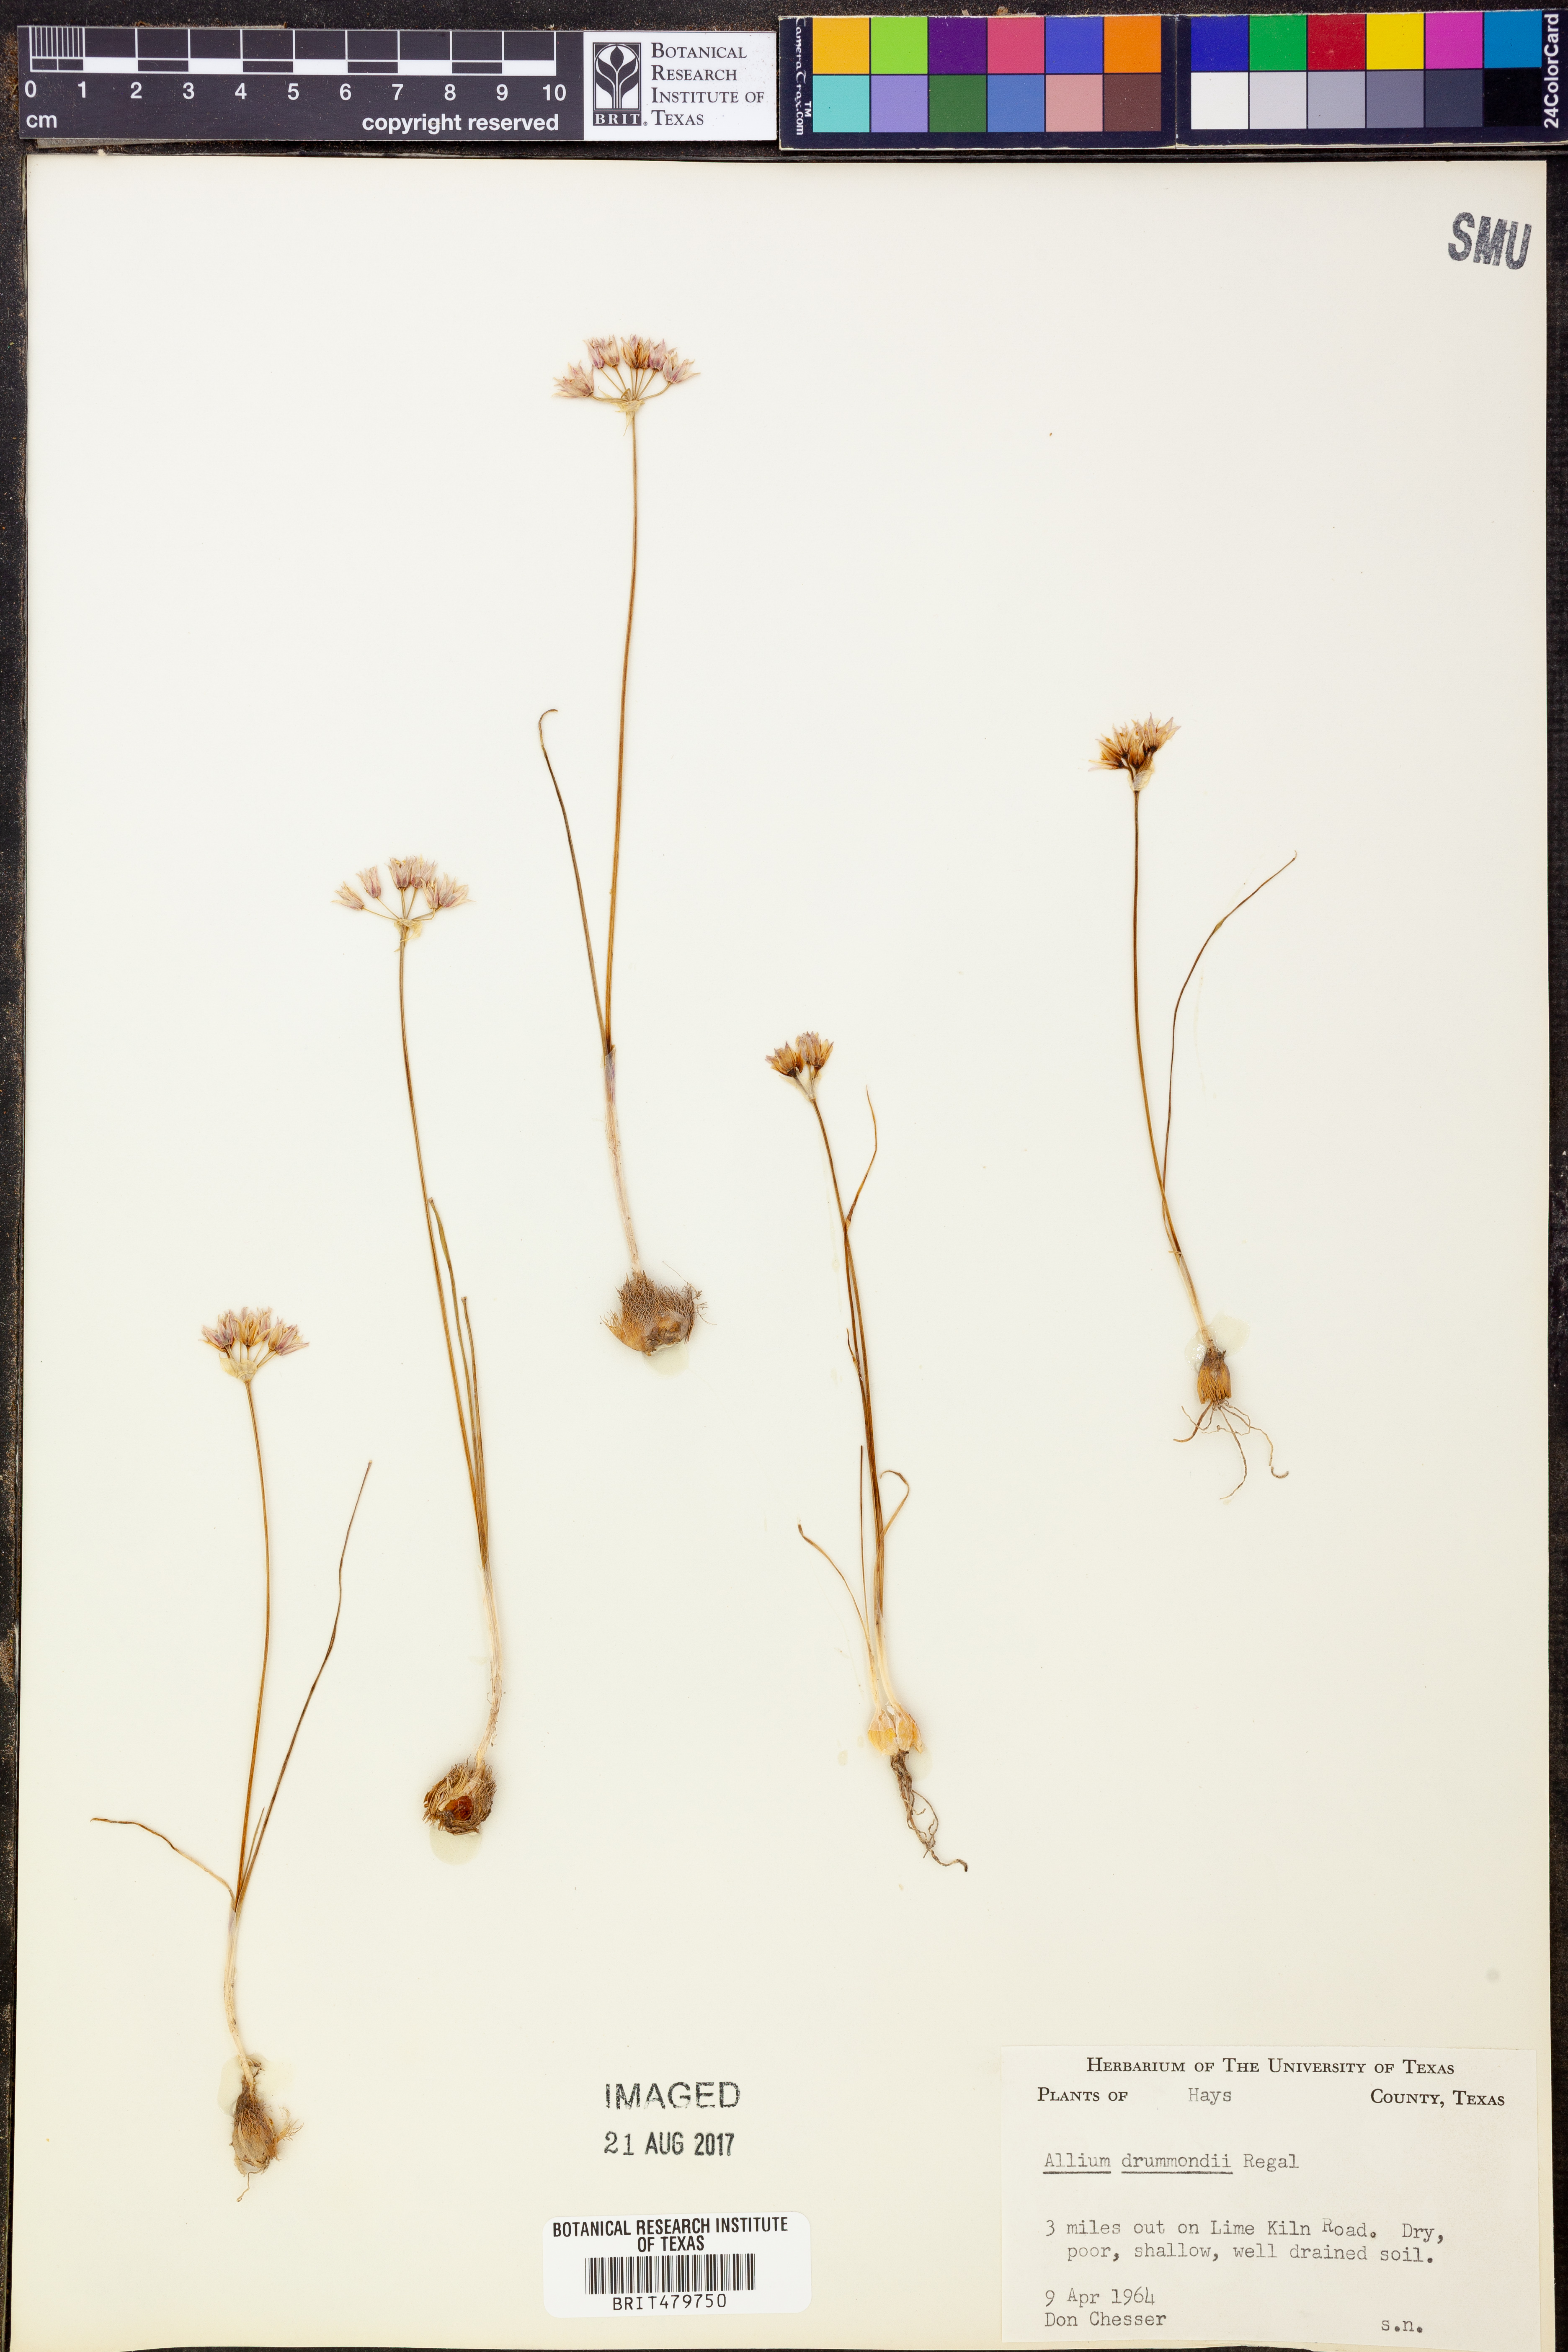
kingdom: Plantae
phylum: Tracheophyta
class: Liliopsida
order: Asparagales
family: Amaryllidaceae
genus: Allium
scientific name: Allium drummondii
